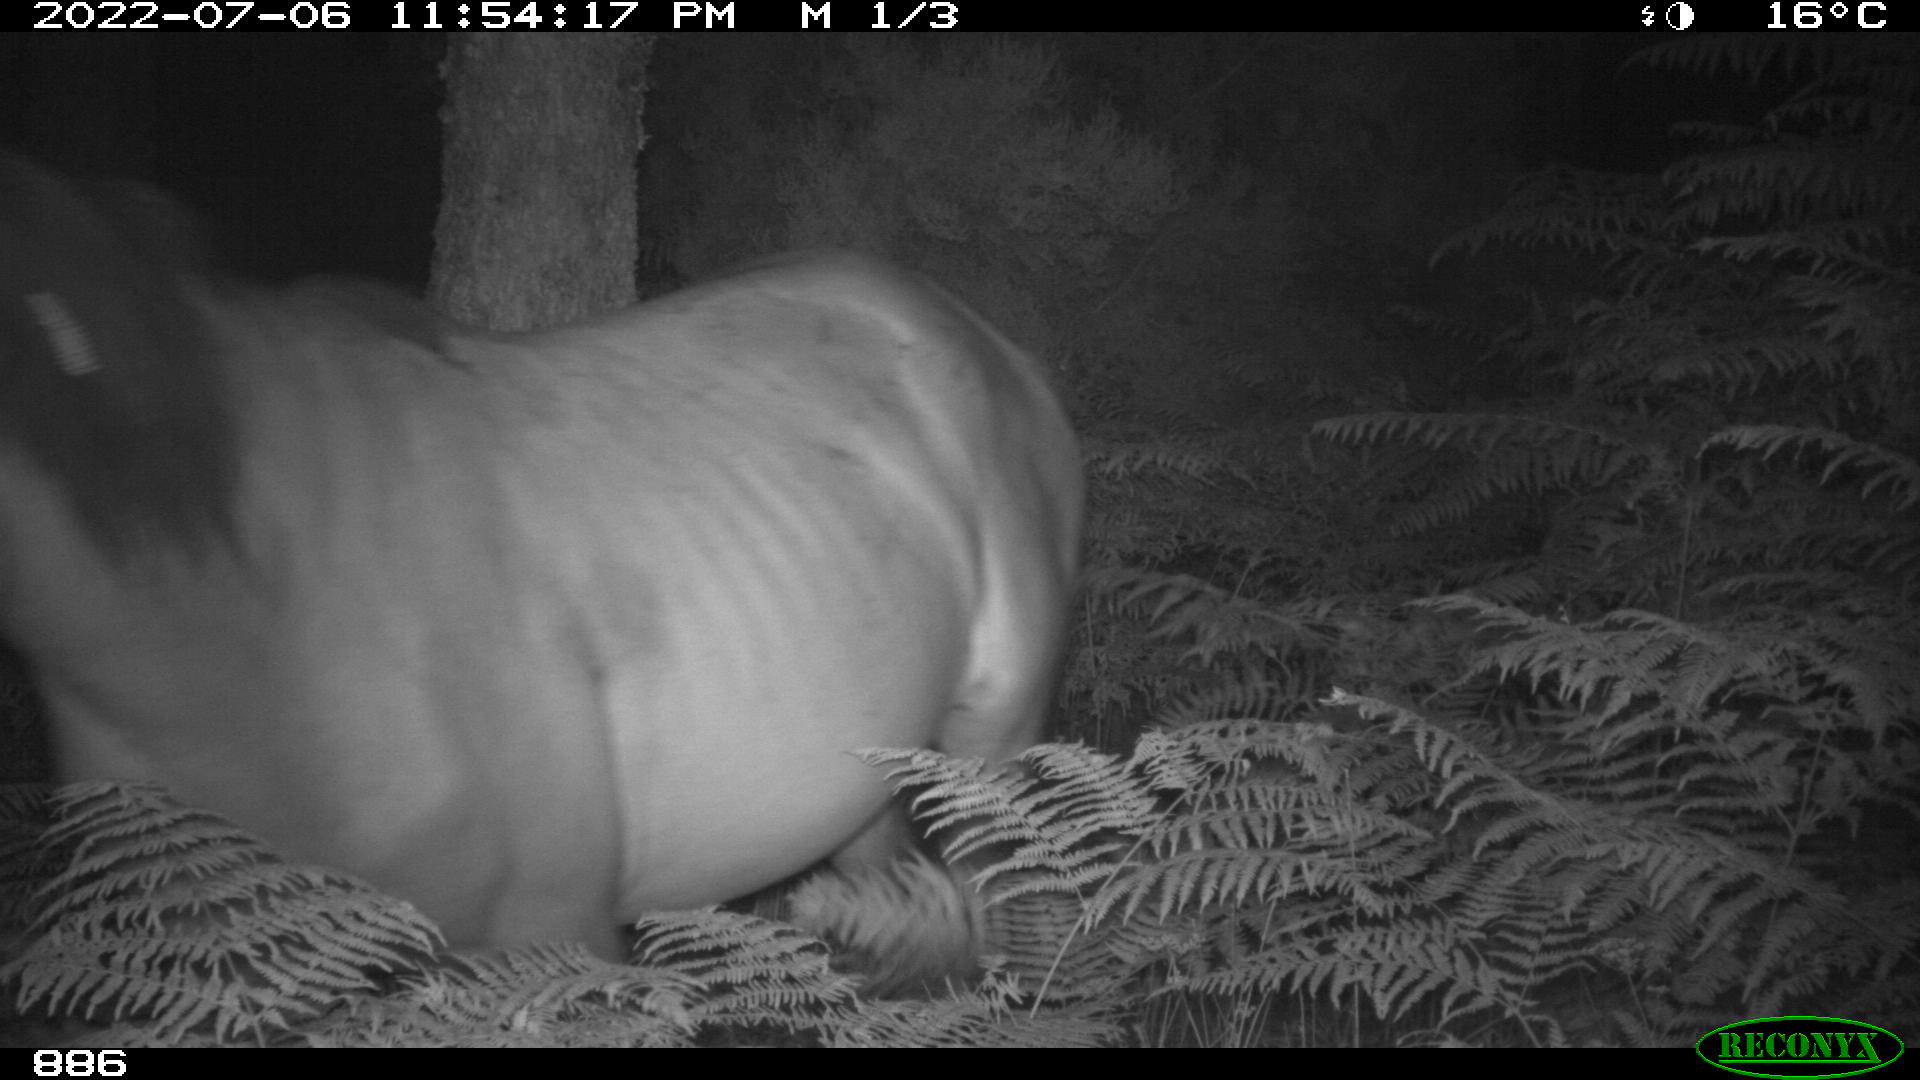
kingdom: Animalia
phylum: Chordata
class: Mammalia
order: Perissodactyla
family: Equidae
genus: Equus
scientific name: Equus caballus
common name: Horse
